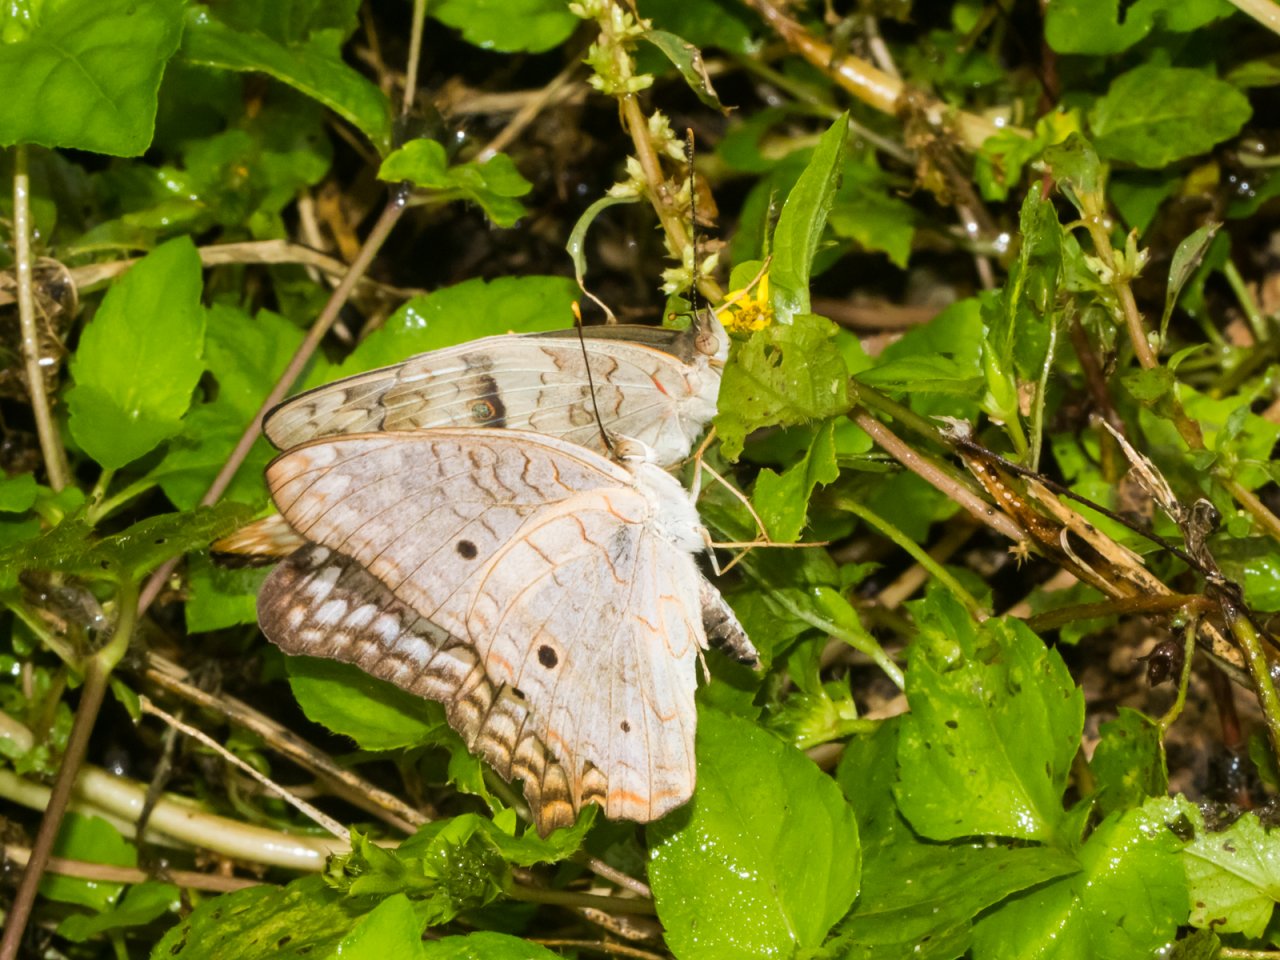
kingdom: Animalia
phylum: Arthropoda
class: Insecta
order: Lepidoptera
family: Nymphalidae
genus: Anartia
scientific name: Anartia jatrophae
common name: White Peacock
